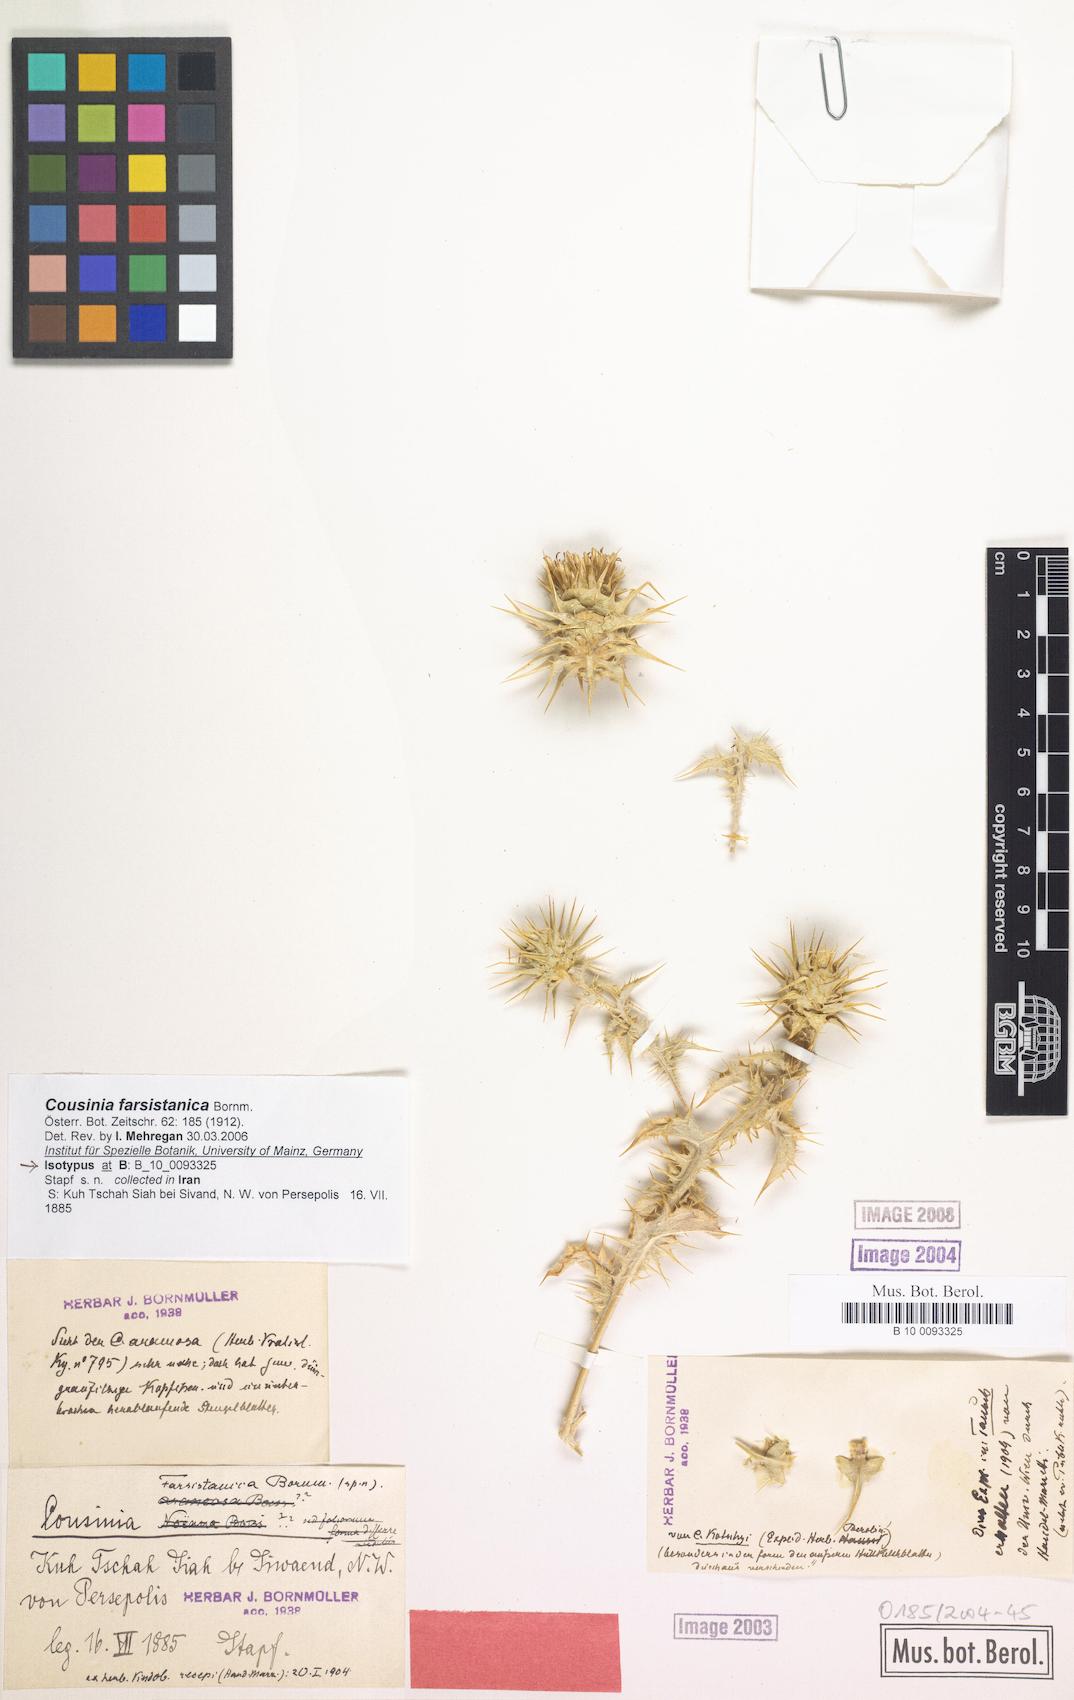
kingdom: Plantae
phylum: Tracheophyta
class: Magnoliopsida
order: Asterales
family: Asteraceae
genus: Cousinia
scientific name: Cousinia farsistanica
